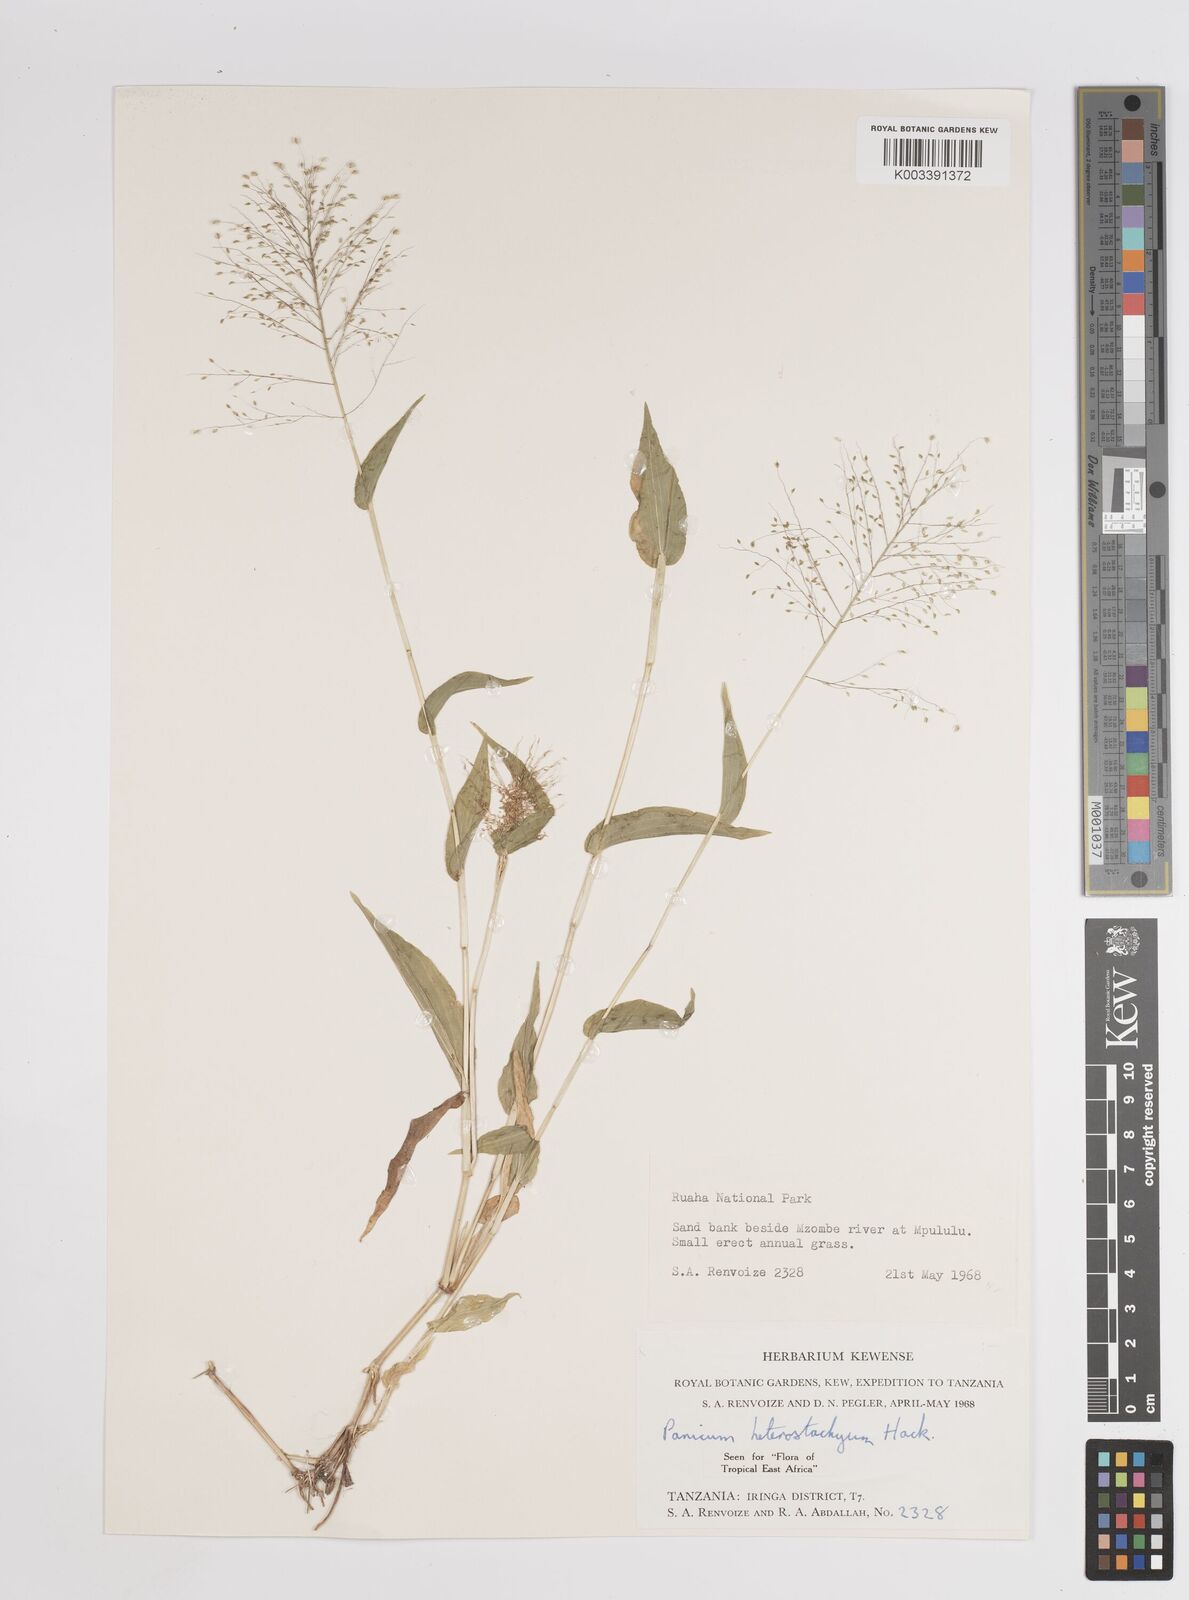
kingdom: Plantae
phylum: Tracheophyta
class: Liliopsida
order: Poales
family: Poaceae
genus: Panicum
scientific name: Panicum hirtum
